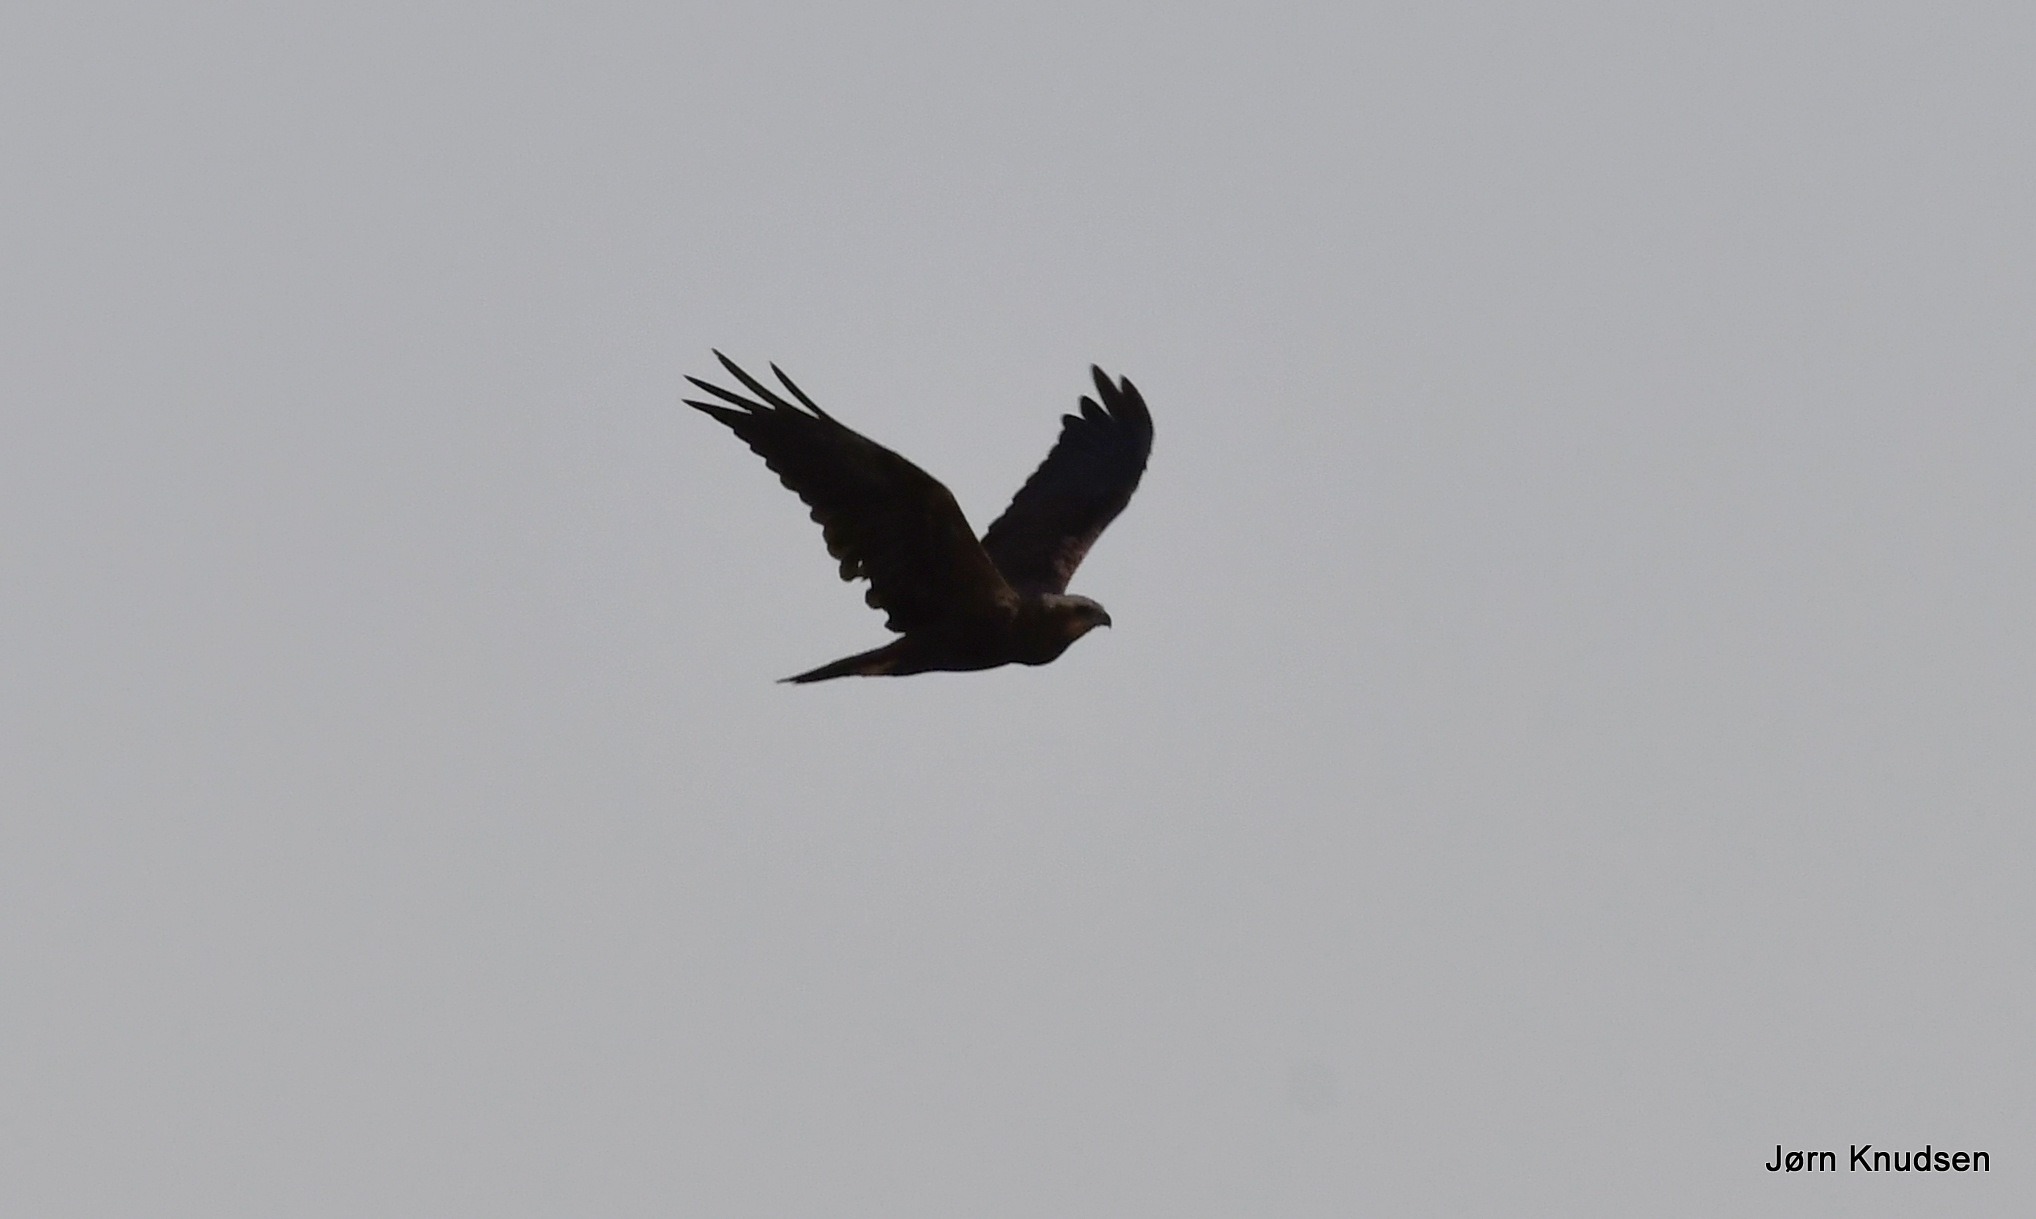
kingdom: Animalia
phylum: Chordata
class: Aves
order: Accipitriformes
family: Accipitridae
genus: Circus
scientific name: Circus aeruginosus
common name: Rørhøg
